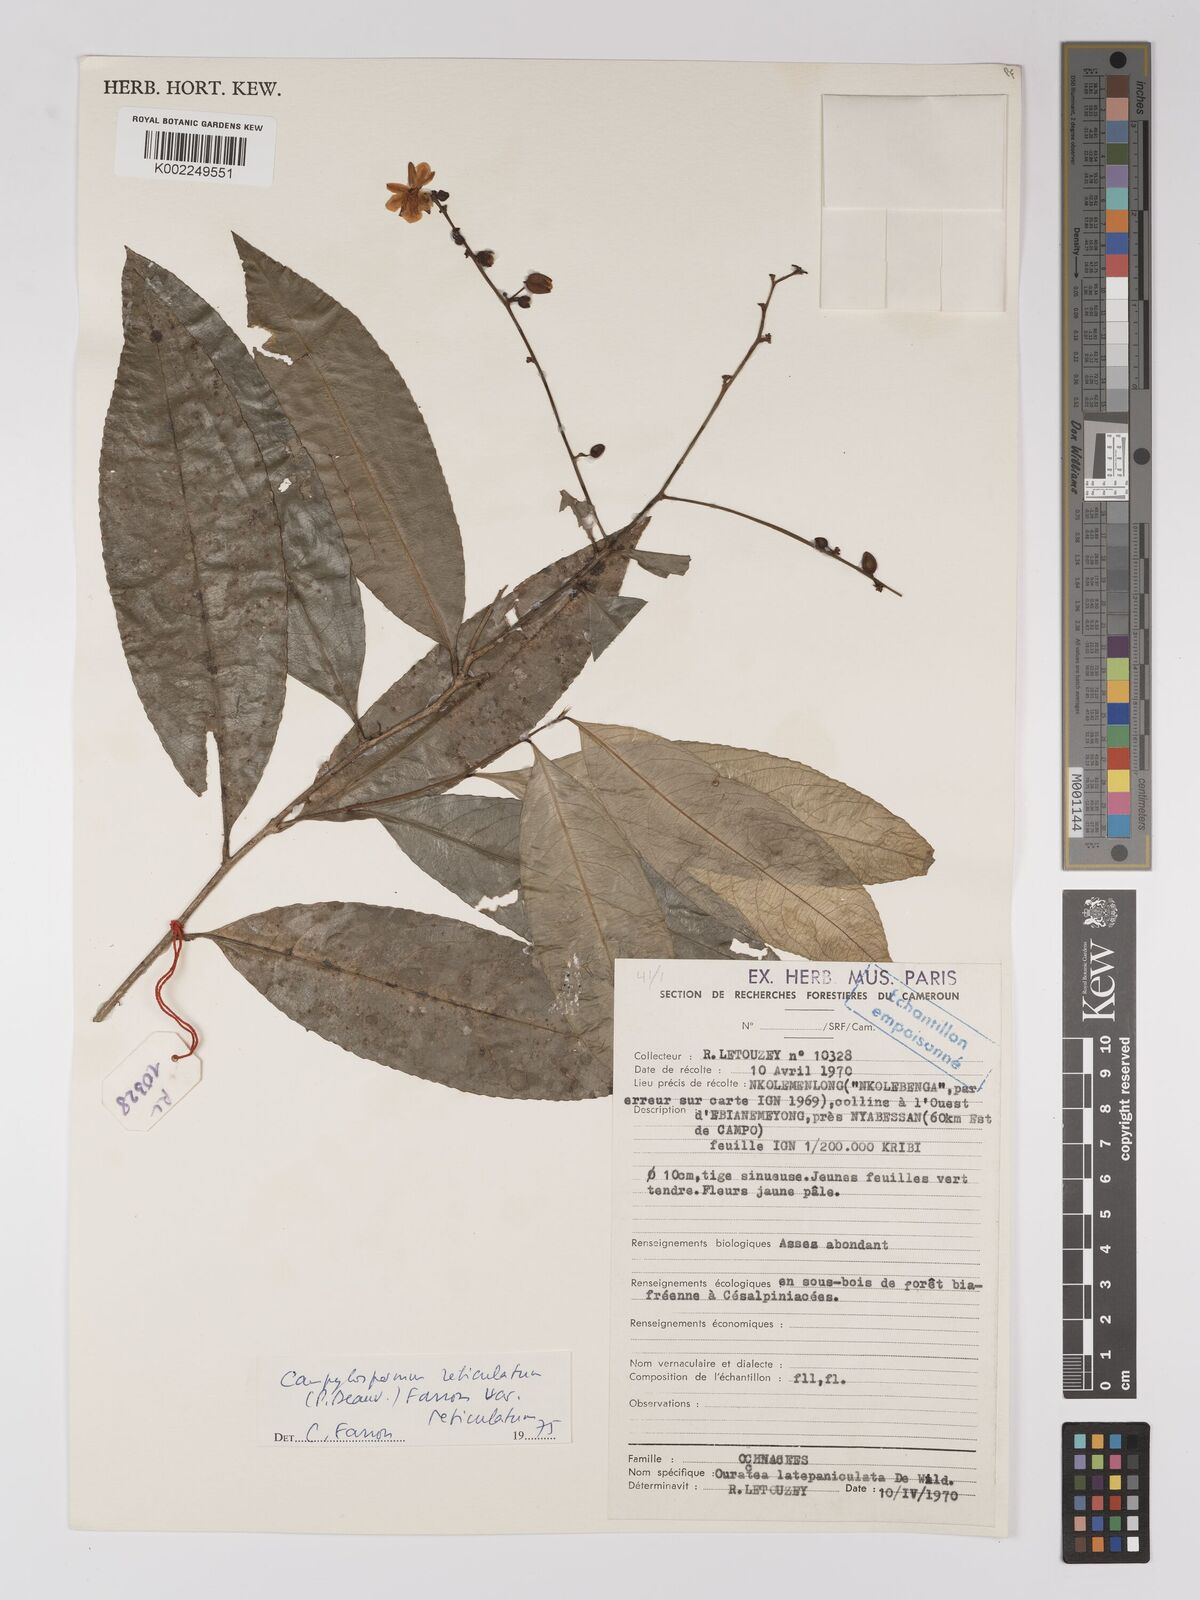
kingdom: Plantae
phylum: Tracheophyta
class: Magnoliopsida
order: Malpighiales
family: Ochnaceae
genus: Campylospermum
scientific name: Campylospermum reticulatum
